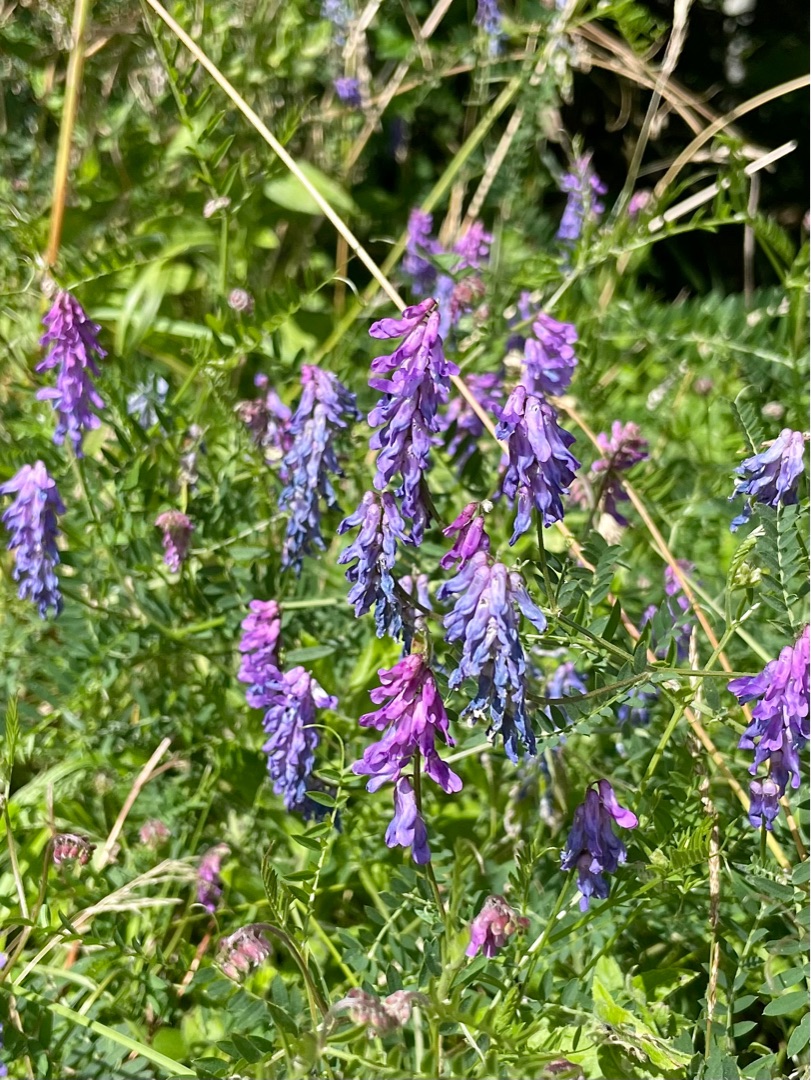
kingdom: Plantae
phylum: Tracheophyta
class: Magnoliopsida
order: Fabales
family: Fabaceae
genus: Vicia
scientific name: Vicia cracca
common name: Muse-vikke
